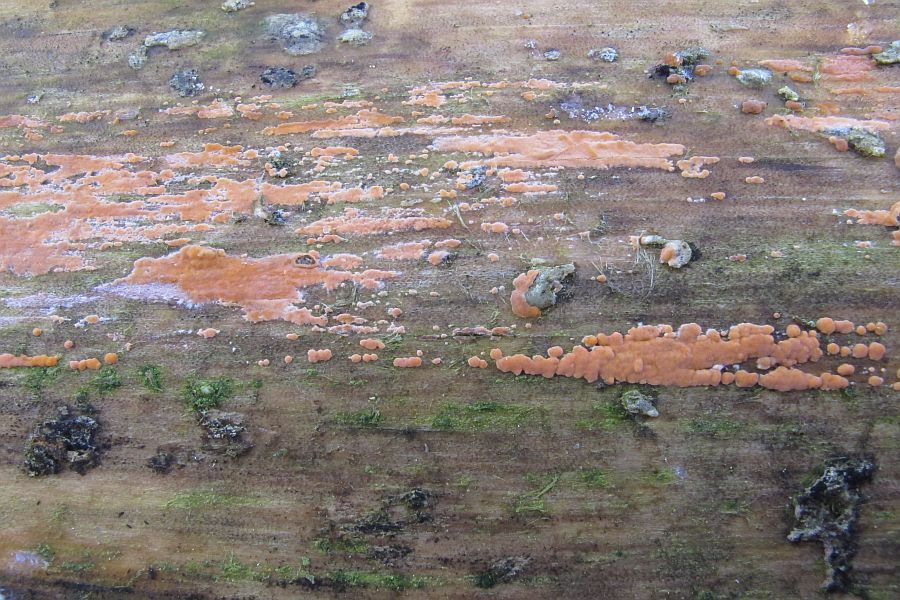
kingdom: Fungi
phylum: Basidiomycota
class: Agaricomycetes
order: Russulales
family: Peniophoraceae
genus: Peniophora
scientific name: Peniophora incarnata
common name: laksefarvet voksskind
